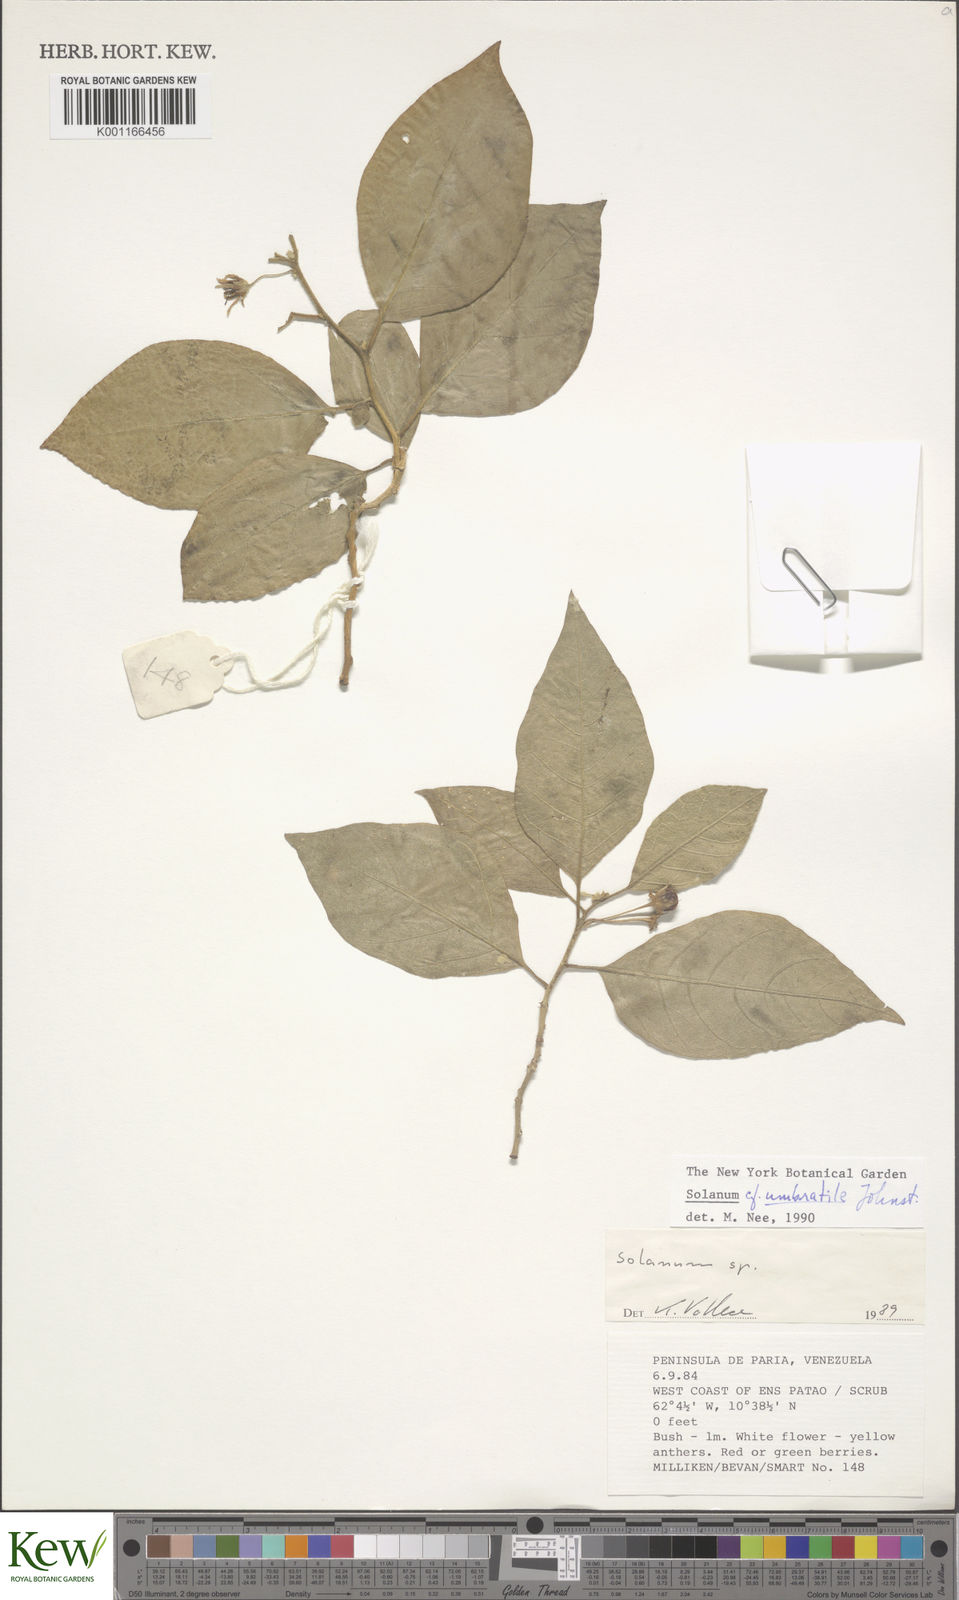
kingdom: Plantae
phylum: Tracheophyta
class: Magnoliopsida
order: Solanales
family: Solanaceae
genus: Solanum
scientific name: Solanum cordovense
